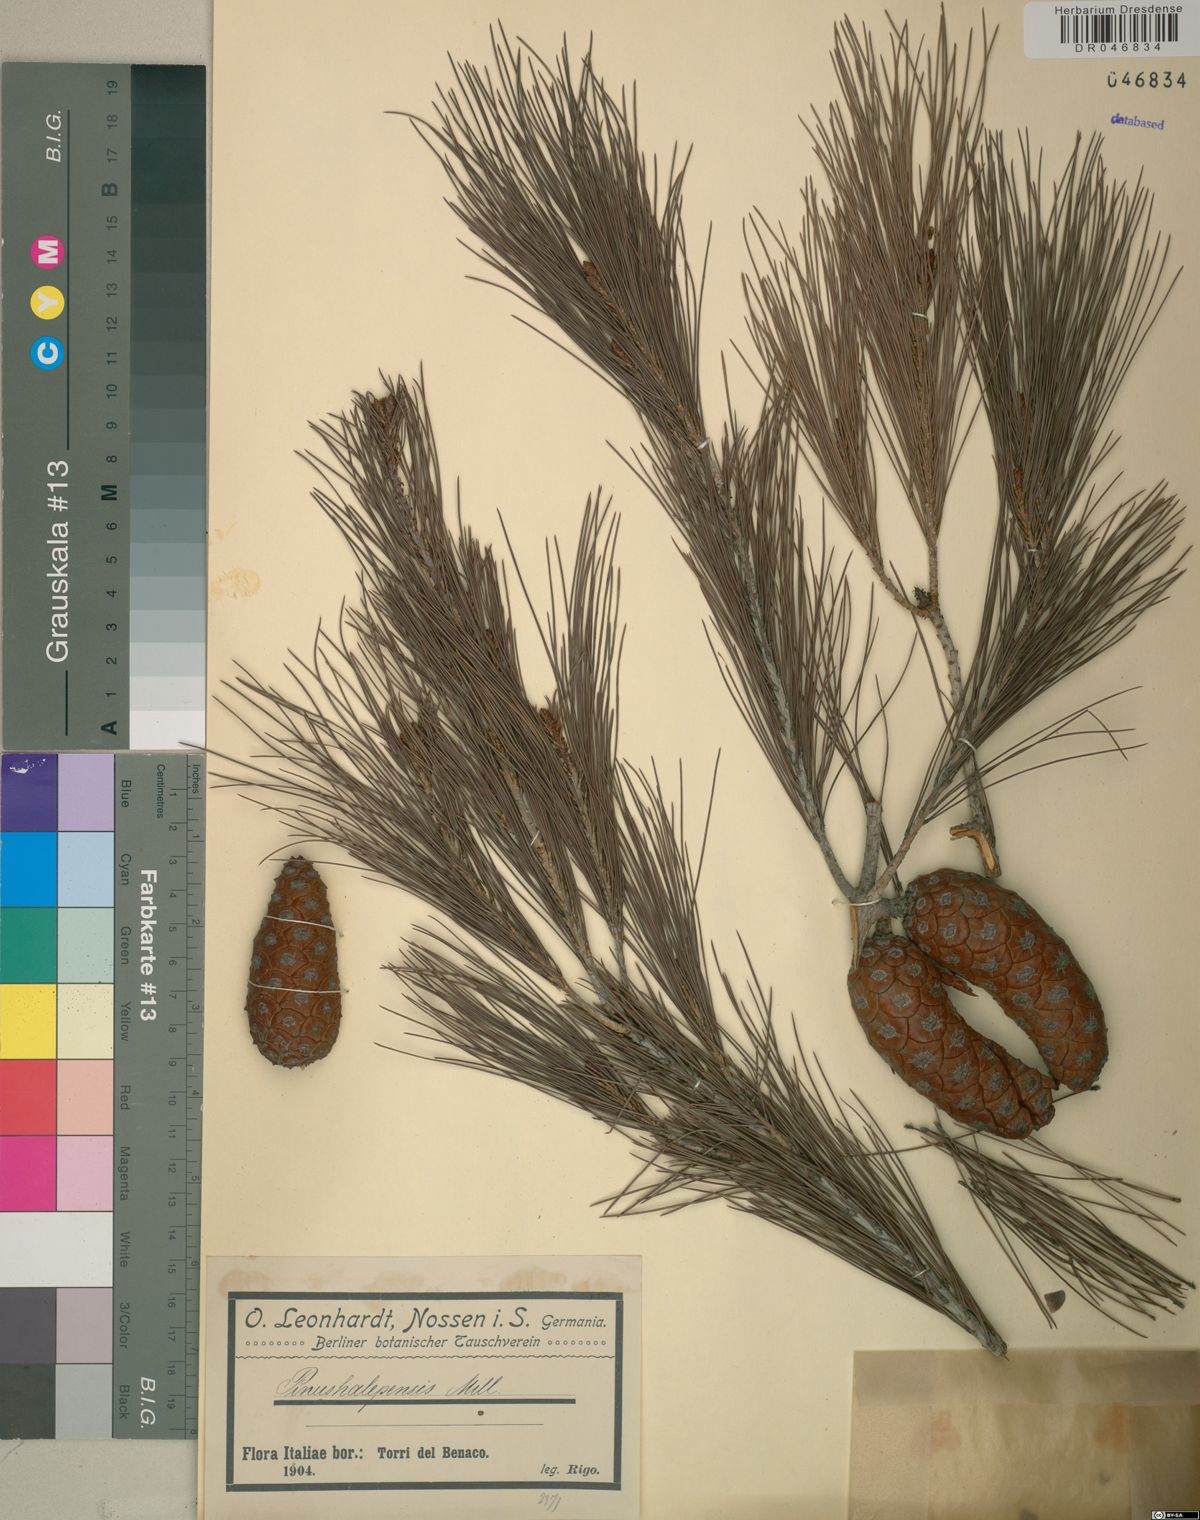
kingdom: Plantae
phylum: Tracheophyta
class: Pinopsida
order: Pinales
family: Pinaceae
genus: Pinus
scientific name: Pinus halepensis
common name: Aleppo pine
